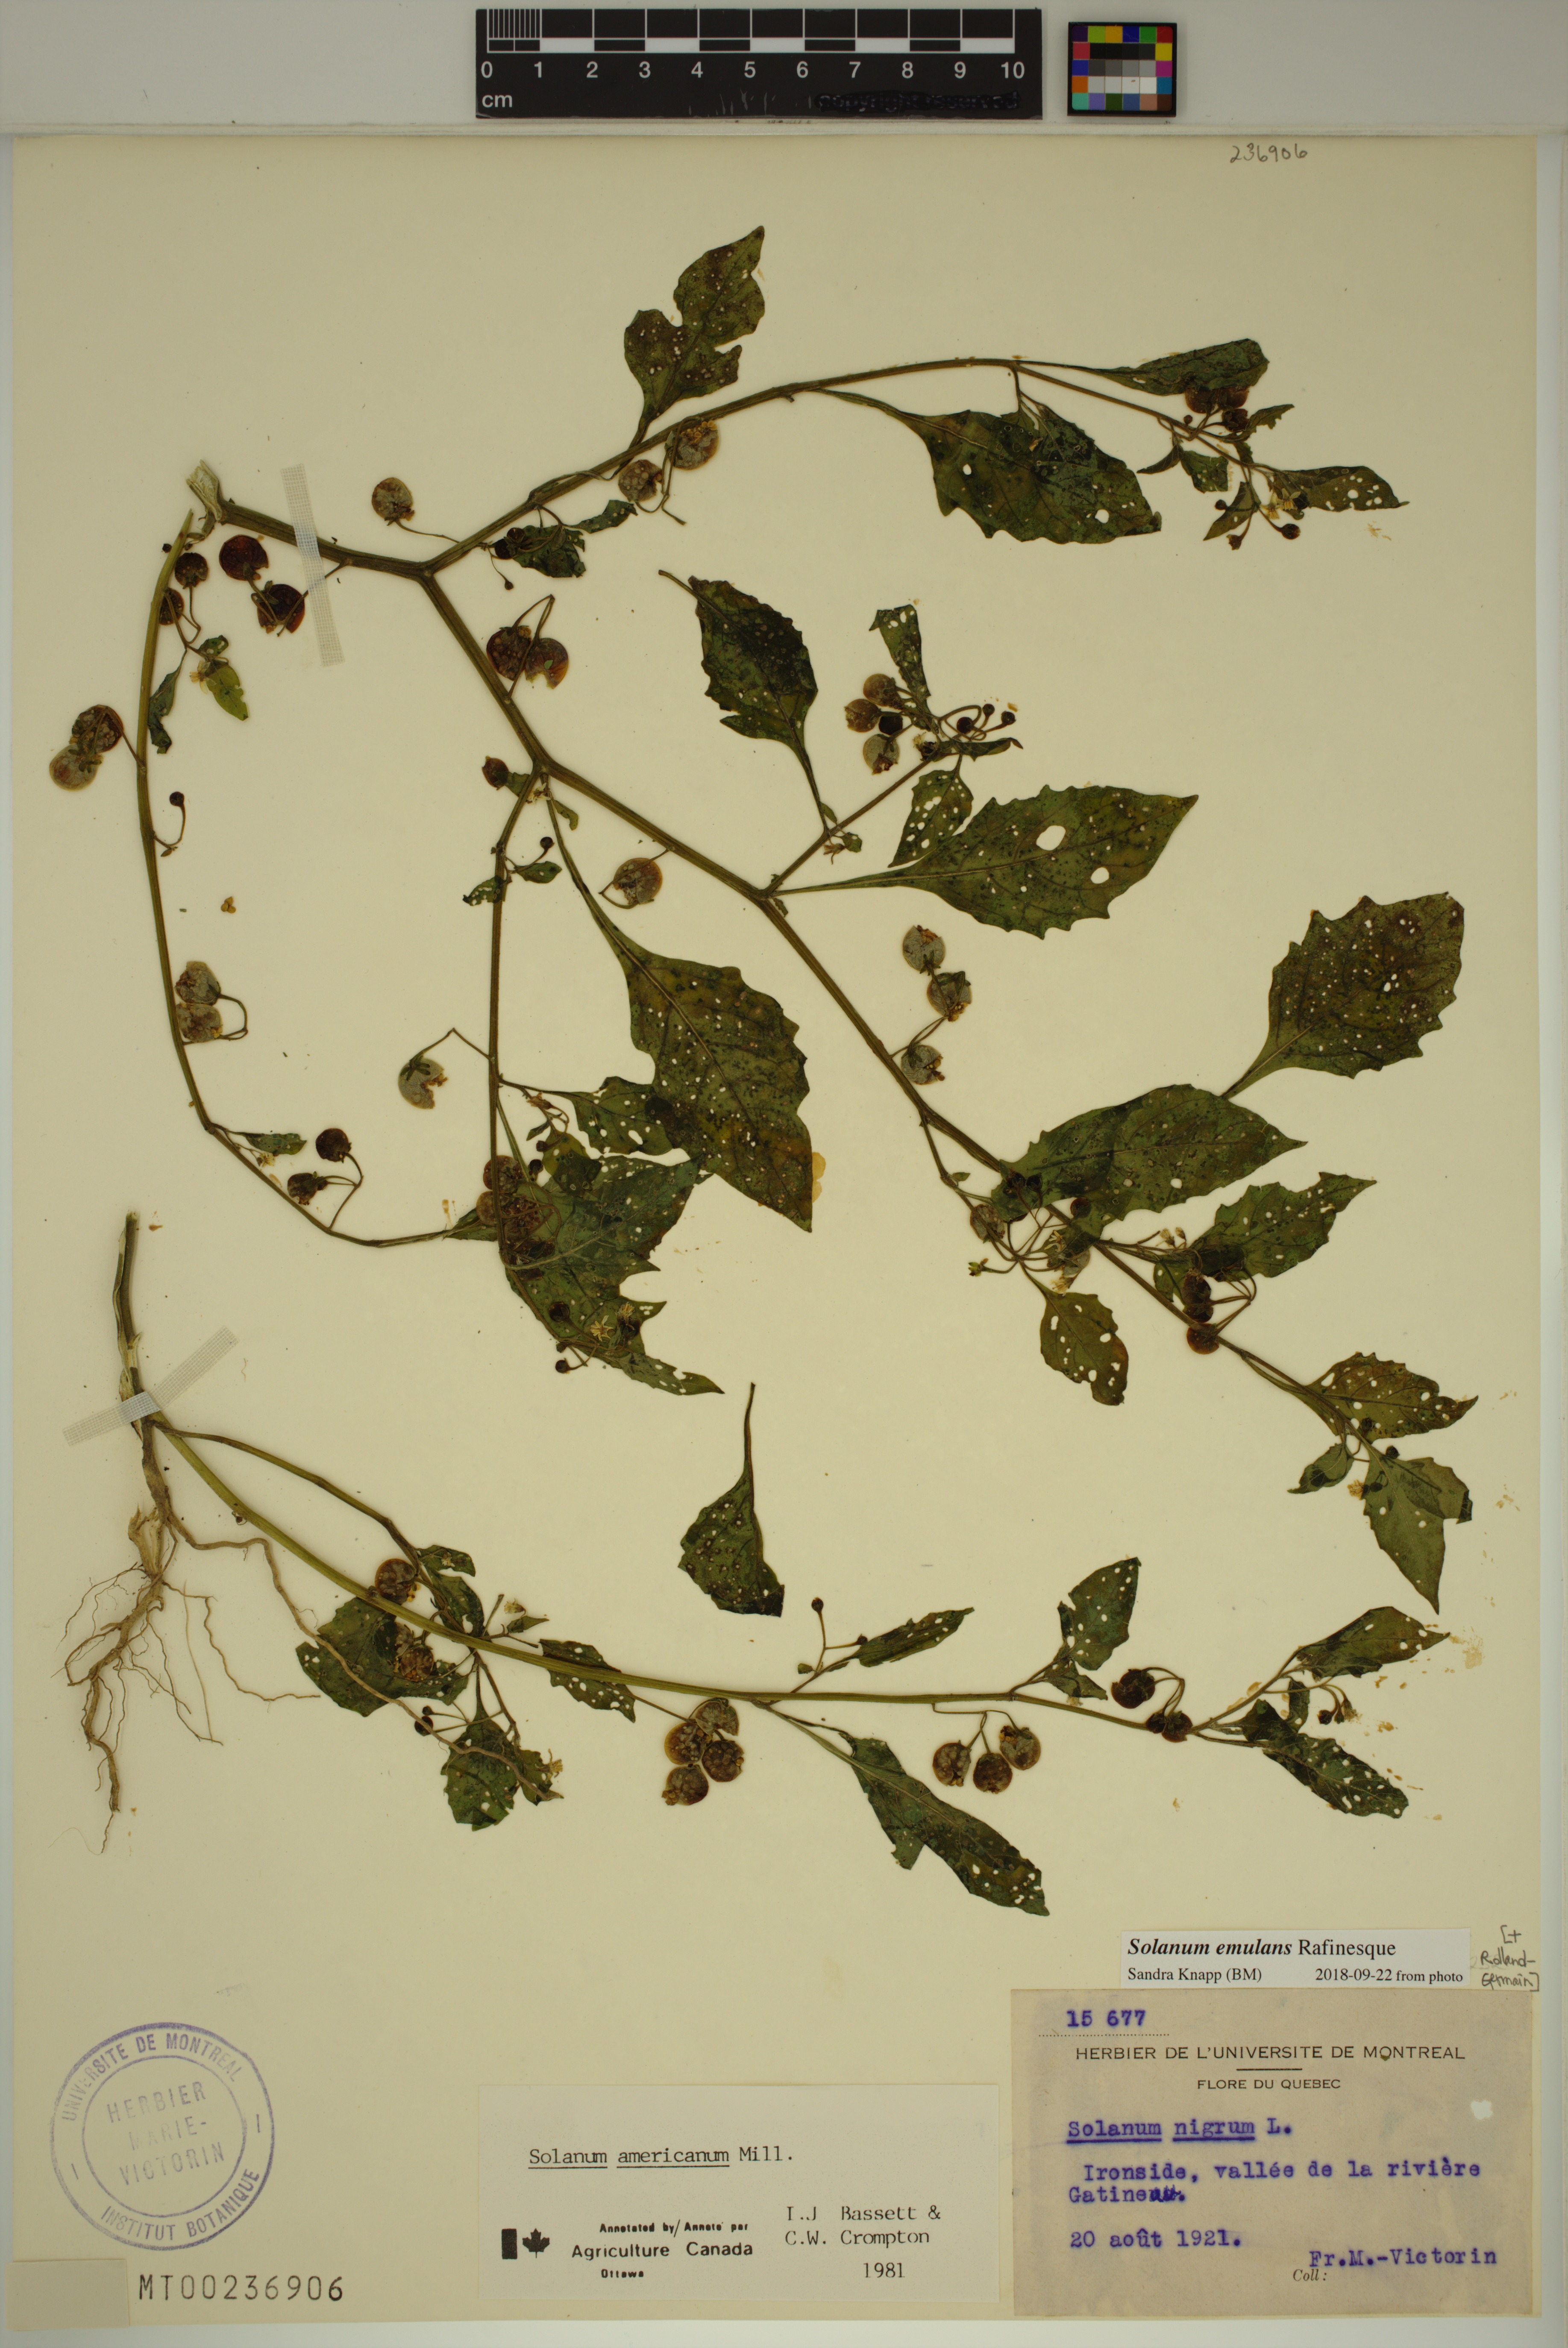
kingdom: Plantae
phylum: Tracheophyta
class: Magnoliopsida
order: Solanales
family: Solanaceae
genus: Solanum
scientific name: Solanum emulans
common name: Eastern black nightshade
